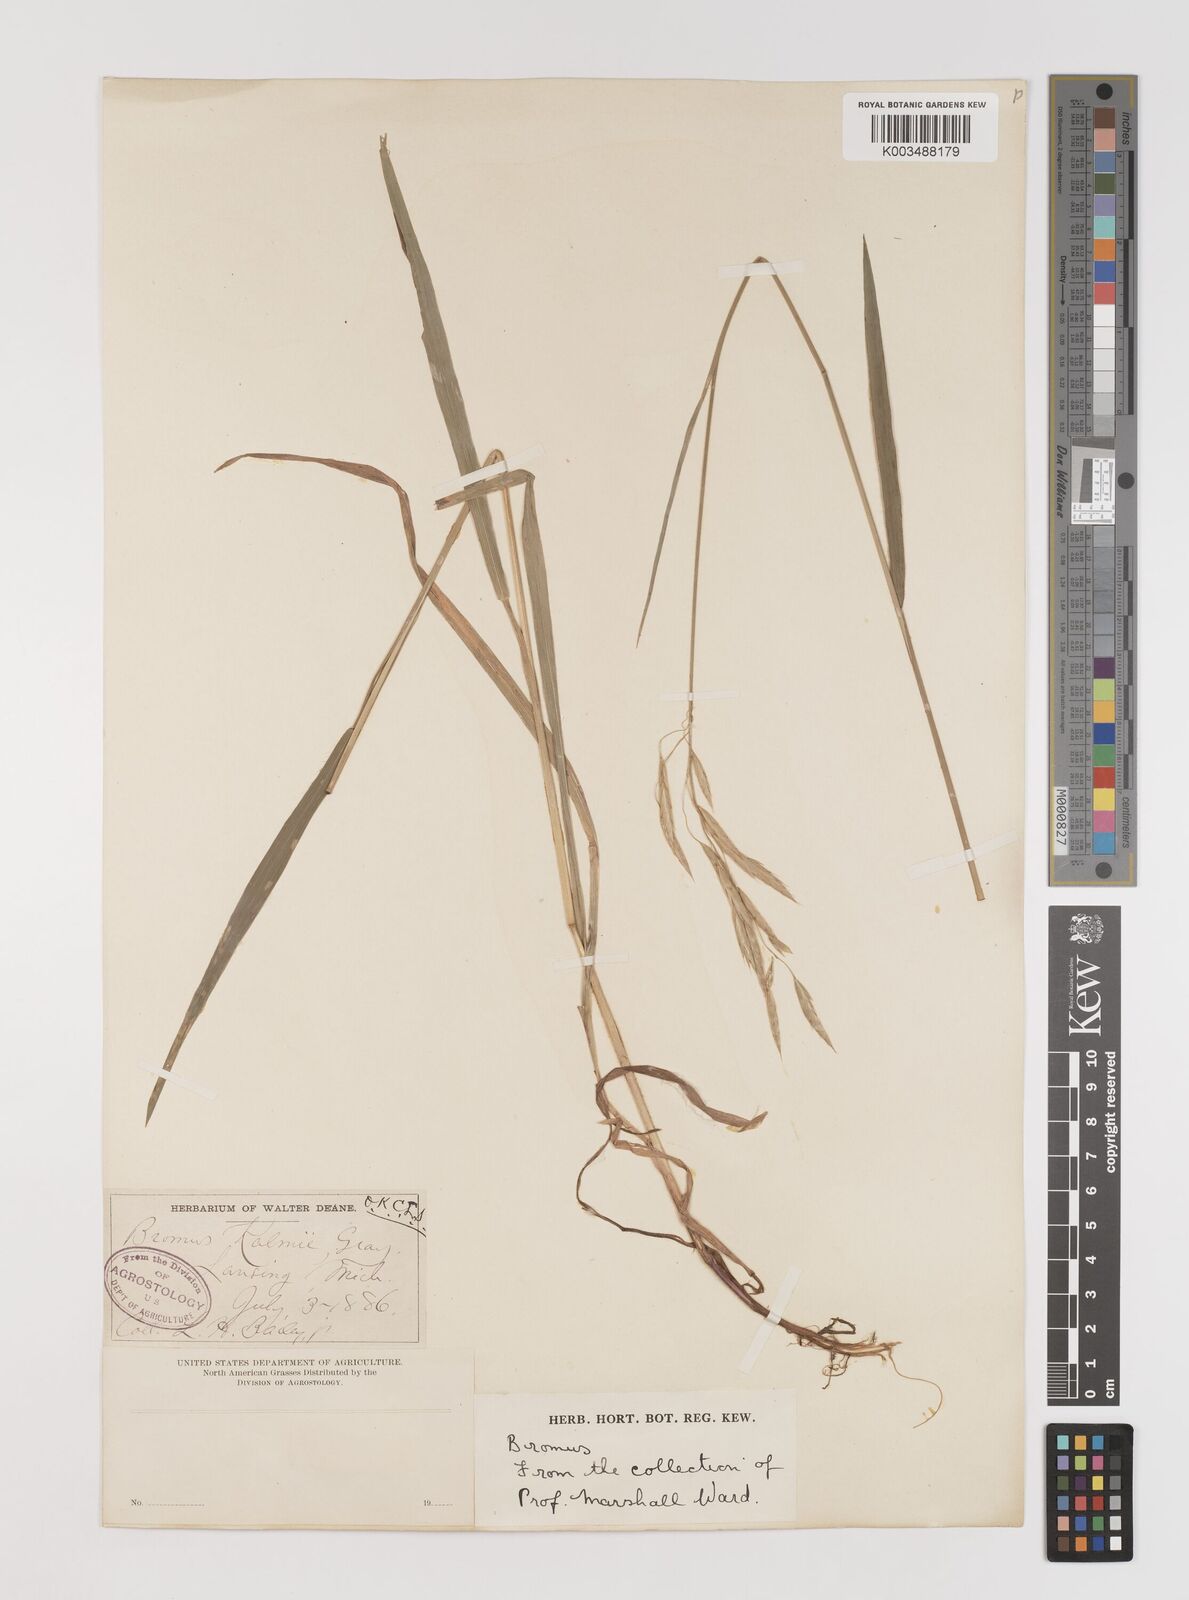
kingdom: Plantae
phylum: Tracheophyta
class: Liliopsida
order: Poales
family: Poaceae
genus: Bromus
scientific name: Bromus kalmii
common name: Kalm brome
